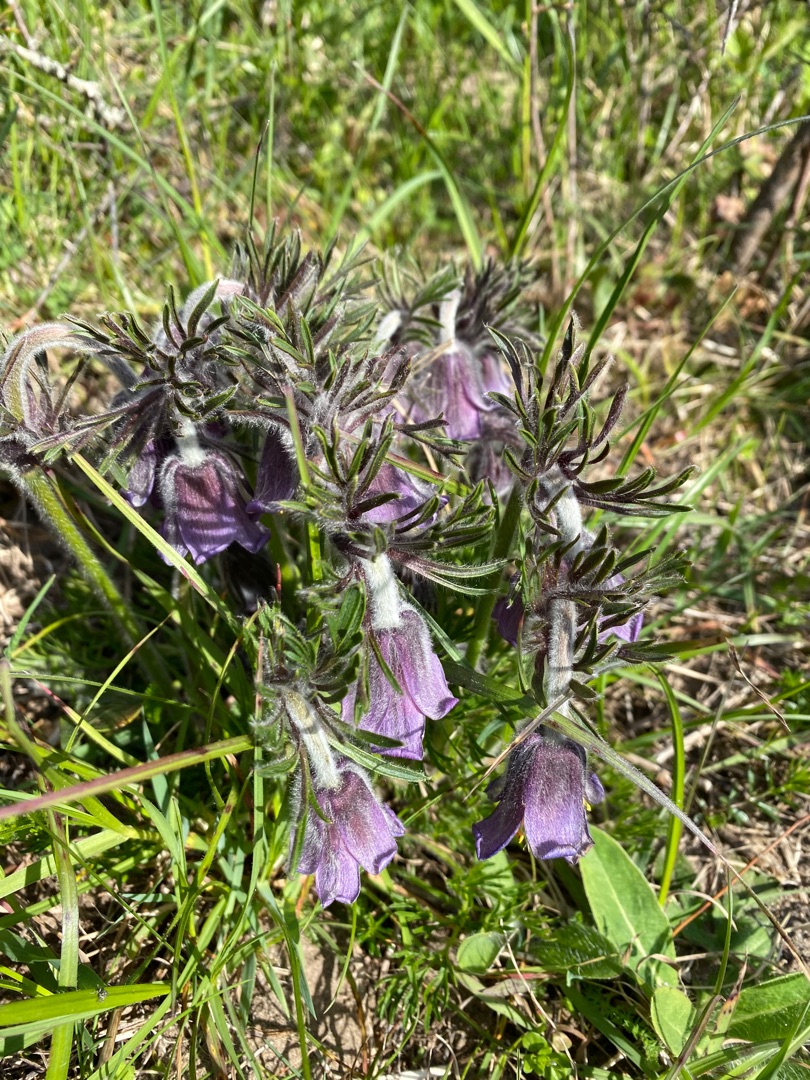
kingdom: Plantae
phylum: Tracheophyta
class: Magnoliopsida
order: Ranunculales
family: Ranunculaceae
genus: Pulsatilla
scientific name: Pulsatilla pratensis
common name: Nikkende kobjælde
